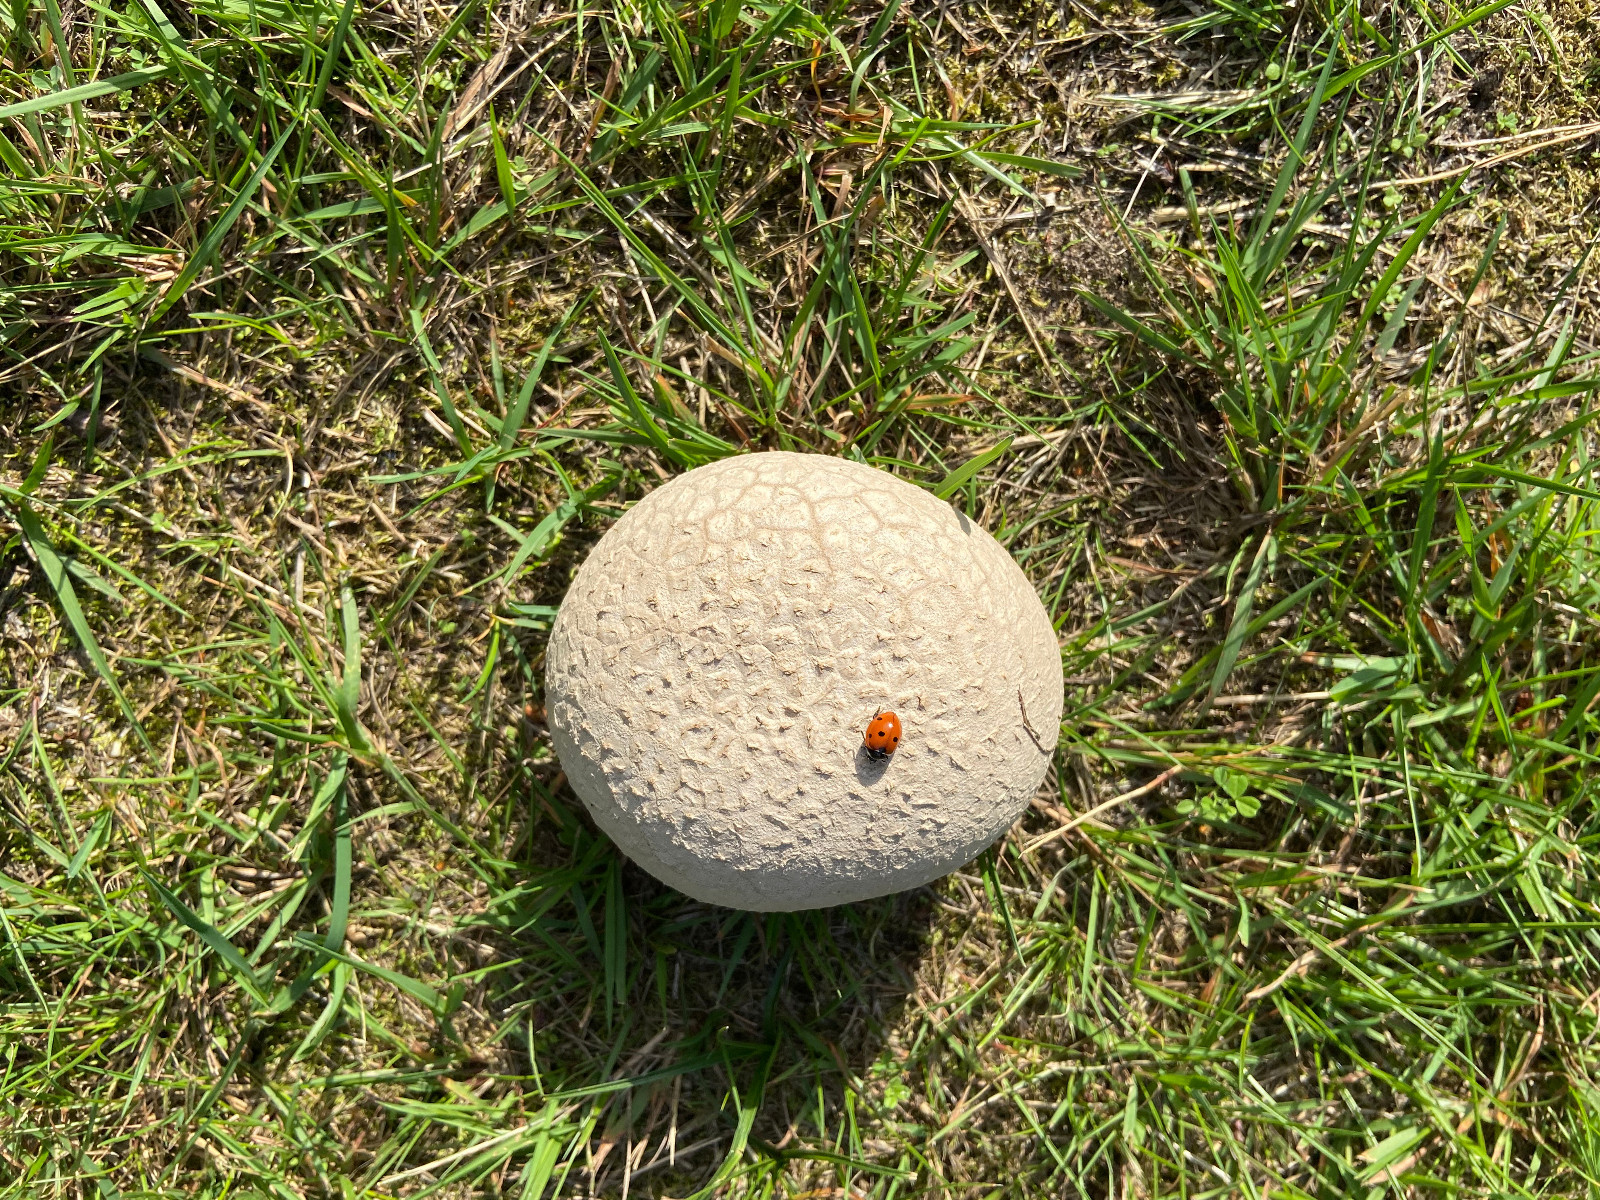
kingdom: Fungi
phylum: Basidiomycota
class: Agaricomycetes
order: Agaricales
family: Lycoperdaceae
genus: Bovistella
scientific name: Bovistella utriformis
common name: skællet støvbold
